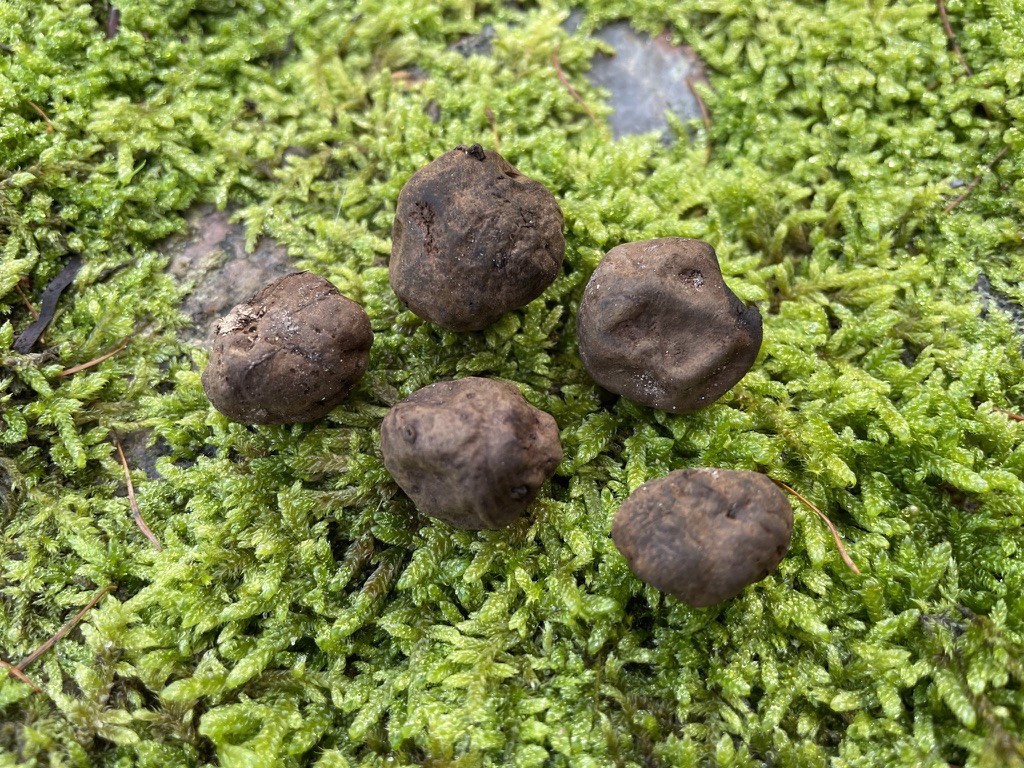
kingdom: Fungi
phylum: Basidiomycota
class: Agaricomycetes
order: Boletales
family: Paxillaceae
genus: Melanogaster
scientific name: Melanogaster ambiguus
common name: lille slimtrøffel
